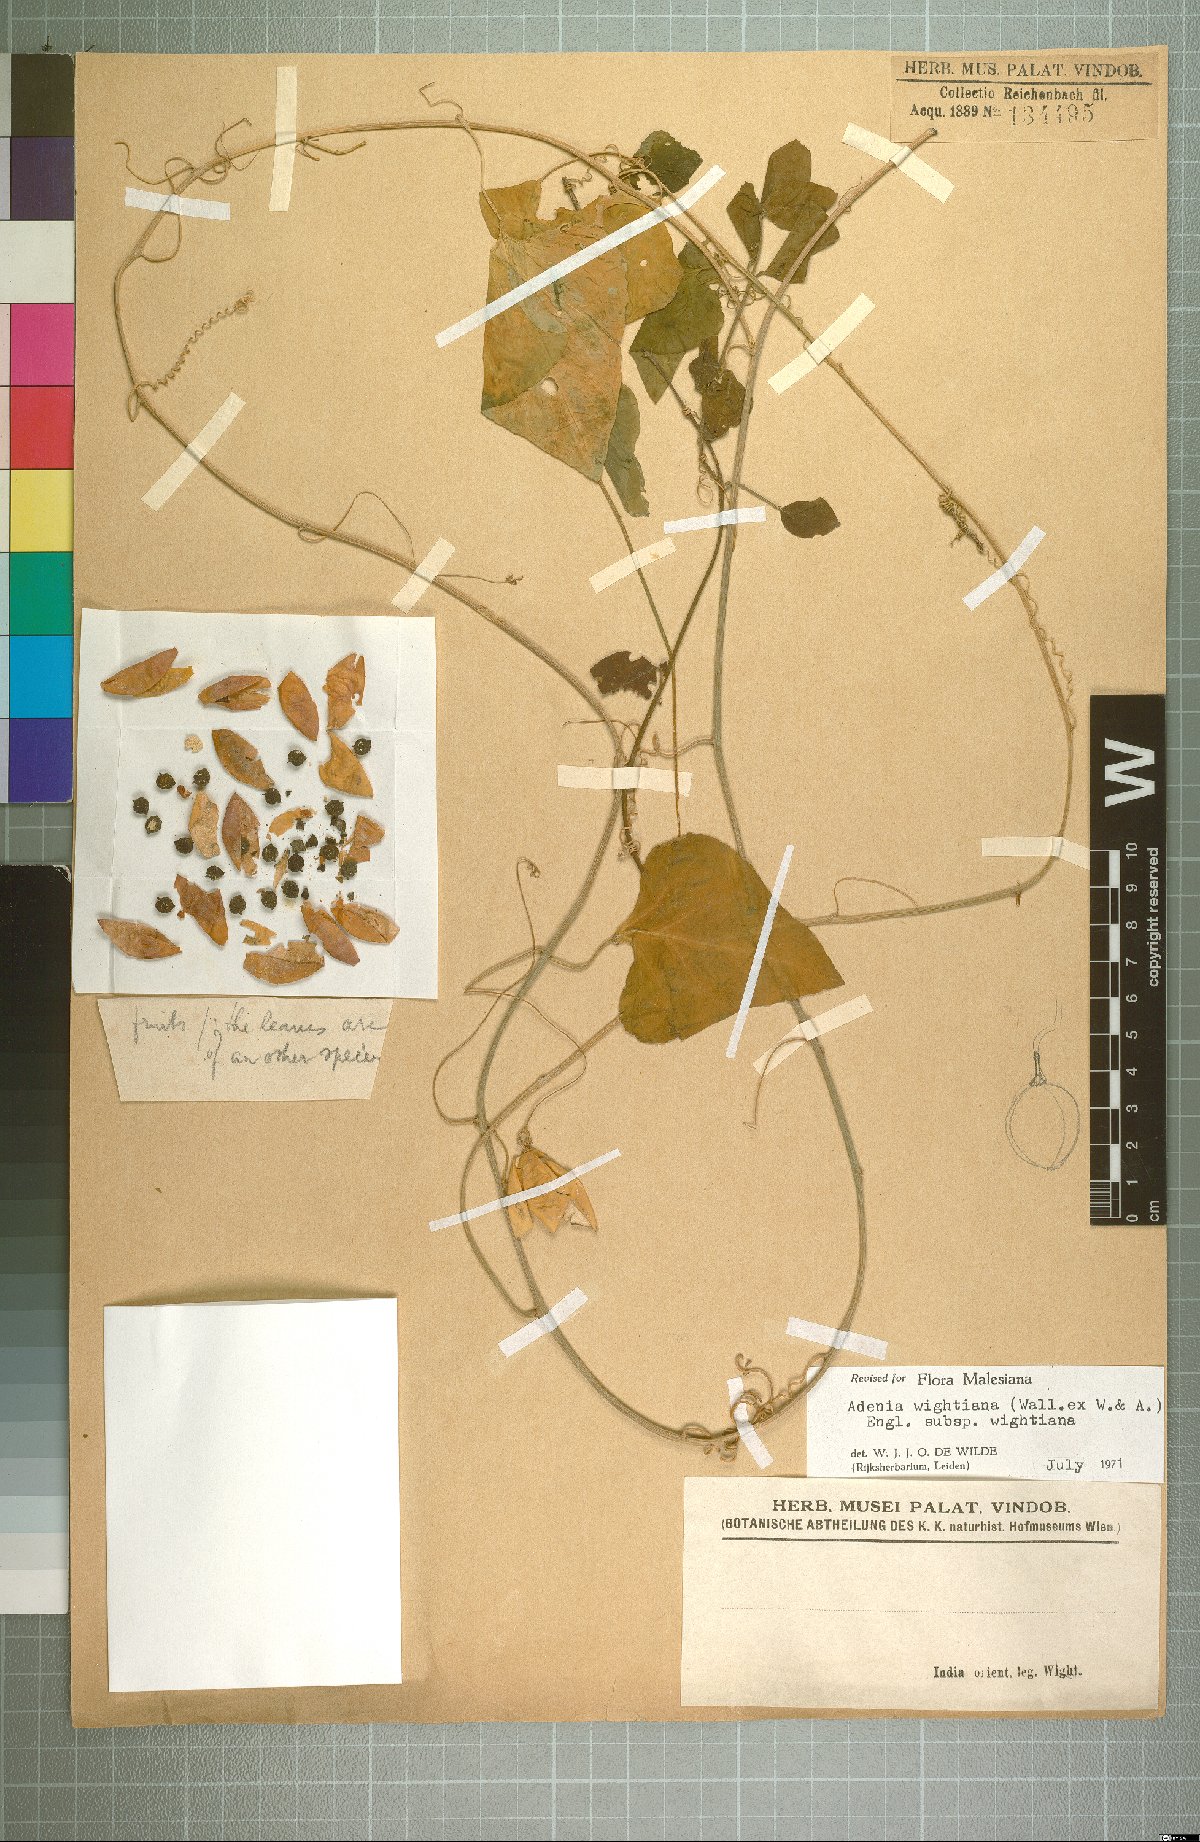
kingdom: Plantae
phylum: Tracheophyta
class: Magnoliopsida
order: Malpighiales
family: Passifloraceae
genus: Adenia
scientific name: Adenia wightiana
